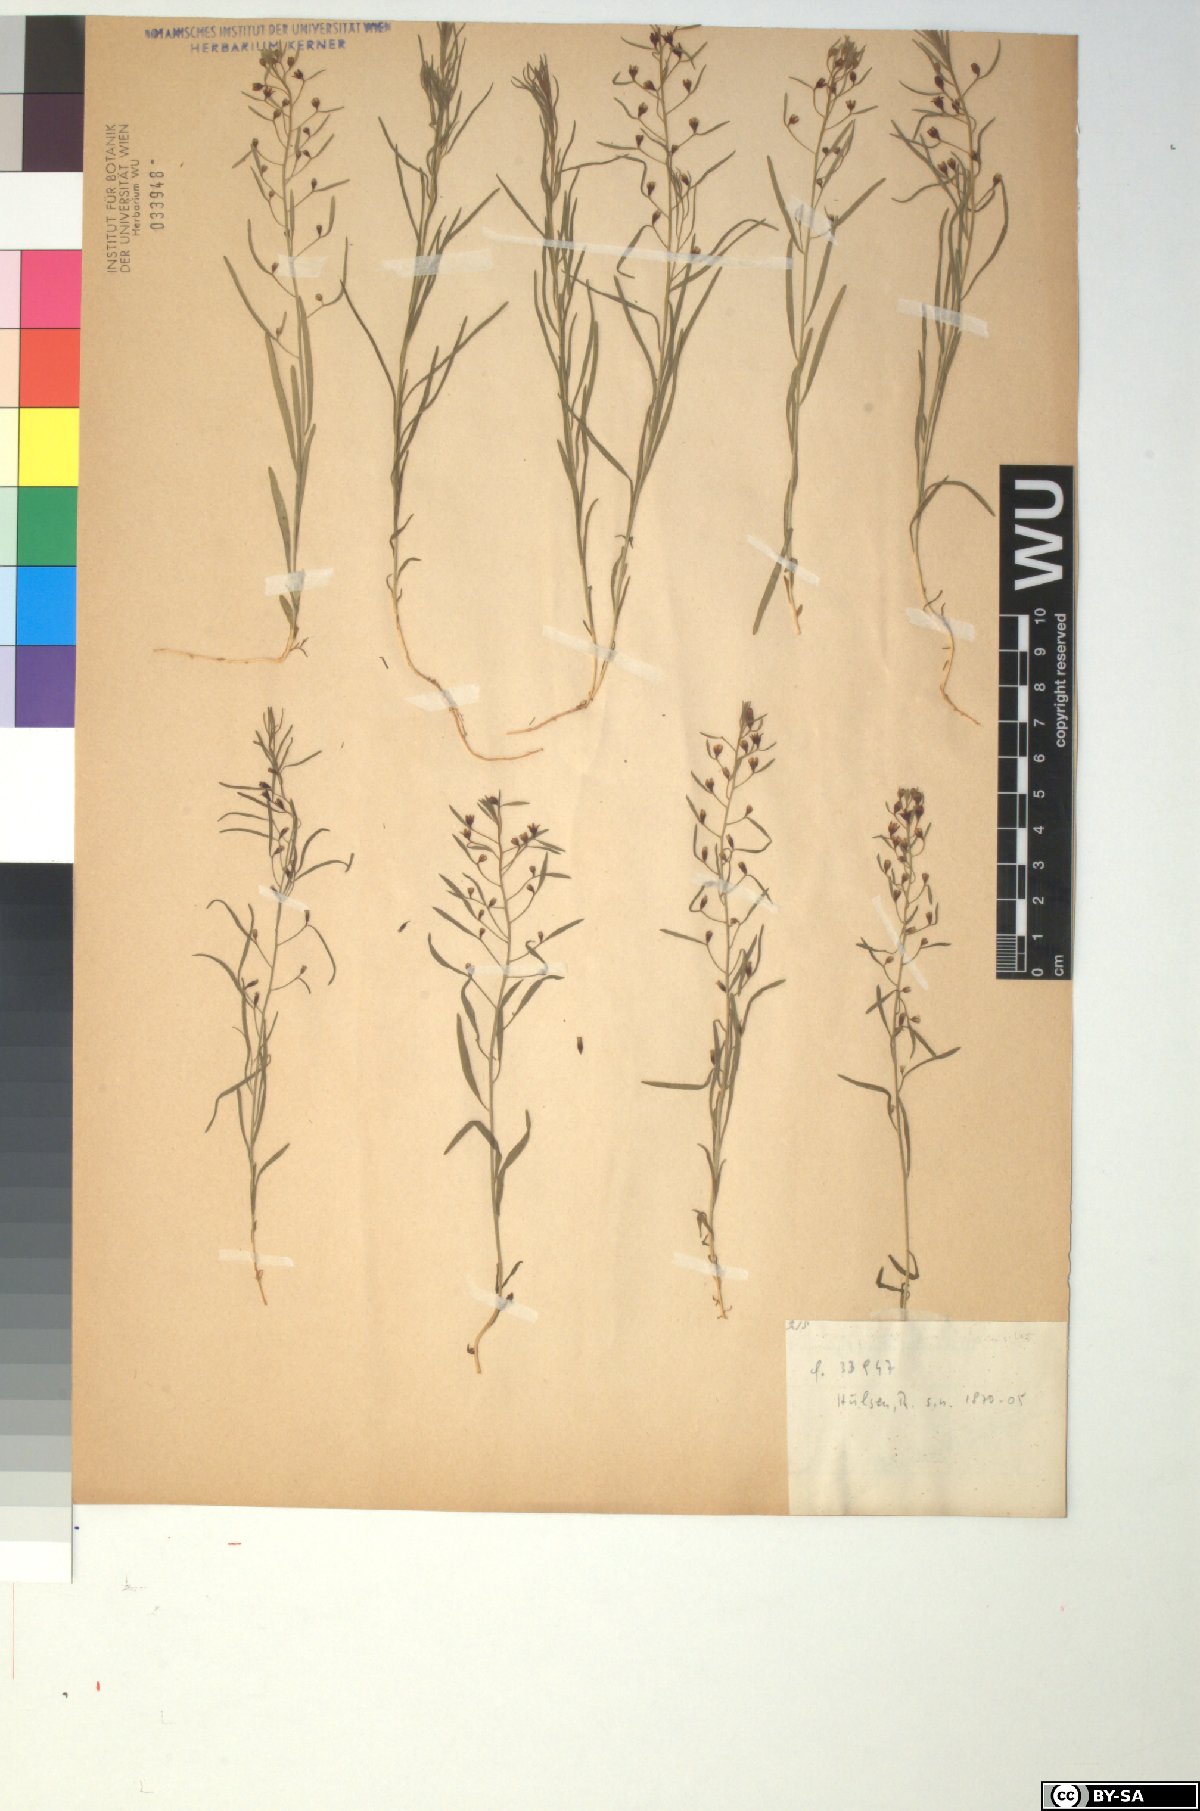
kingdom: Plantae
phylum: Tracheophyta
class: Magnoliopsida
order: Santalales
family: Thesiaceae
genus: Thesium
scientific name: Thesium ebracteatum
